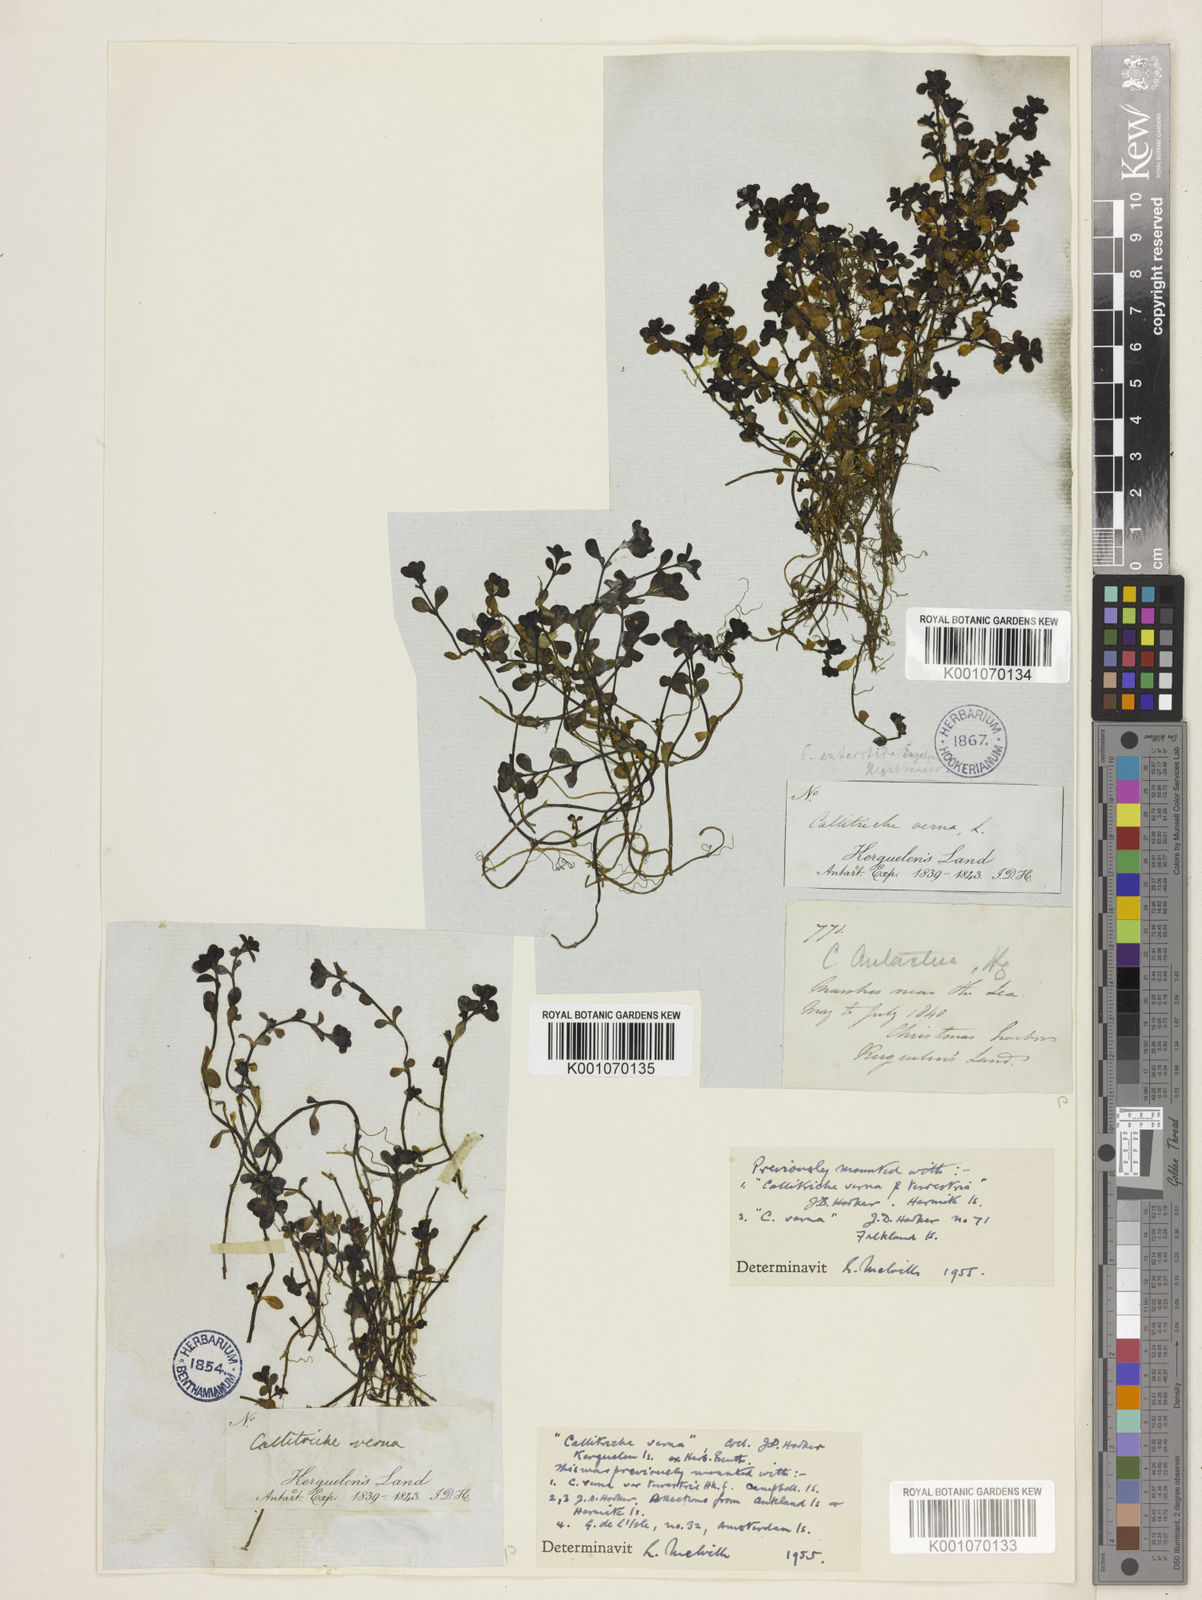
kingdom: Plantae
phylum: Tracheophyta
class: Magnoliopsida
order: Lamiales
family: Plantaginaceae
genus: Callitriche
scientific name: Callitriche antarctica
